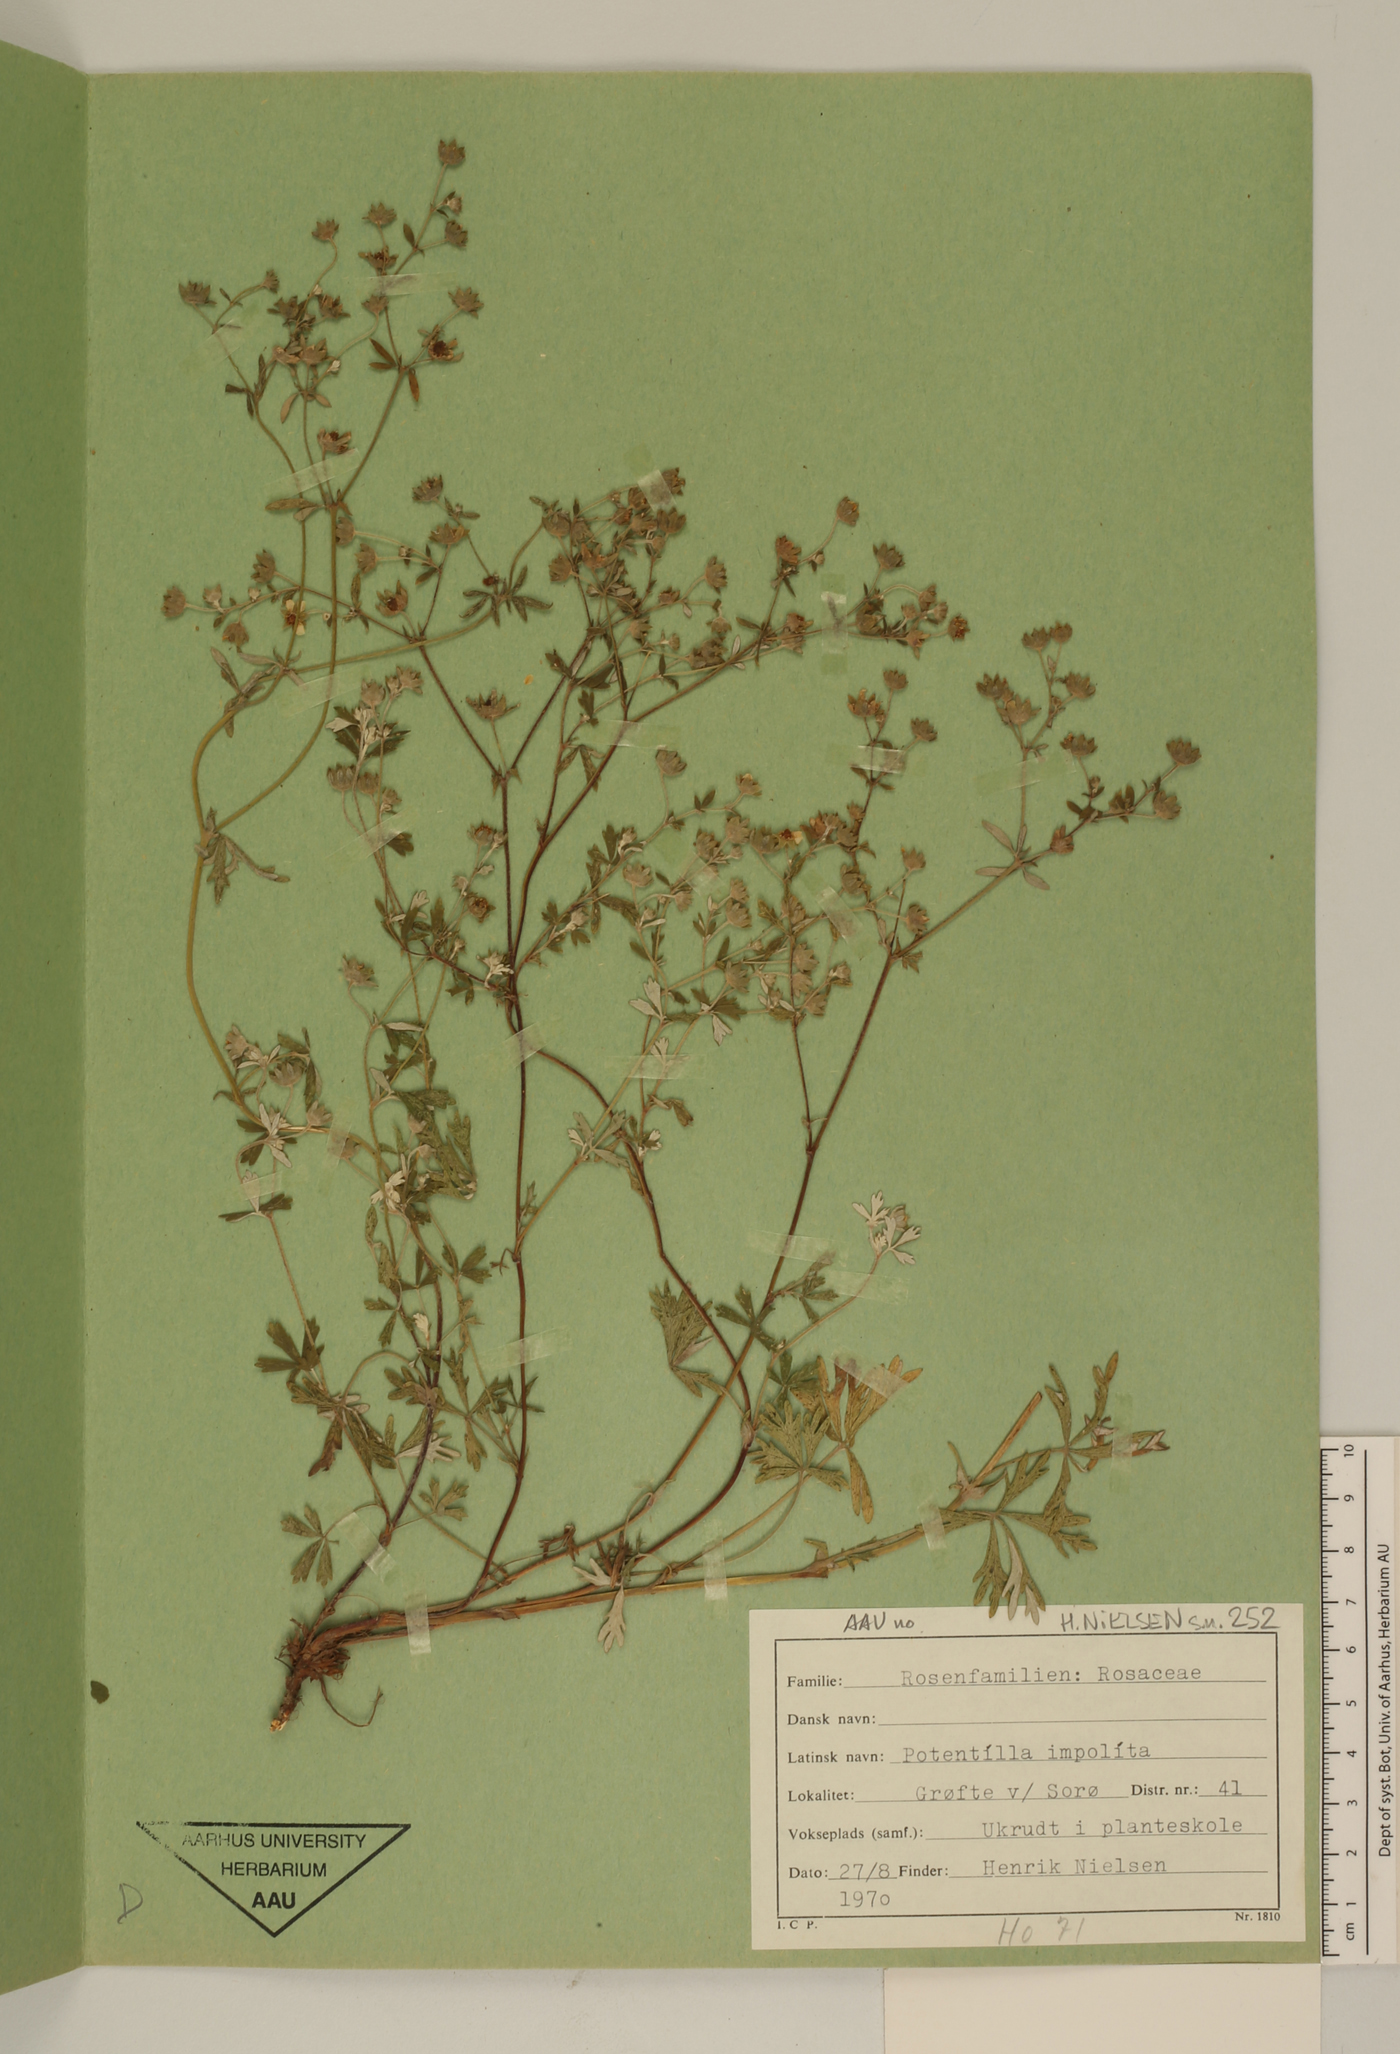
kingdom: Plantae
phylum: Tracheophyta
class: Magnoliopsida
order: Rosales
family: Rosaceae
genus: Potentilla
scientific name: Potentilla inclinata
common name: Grey cinquefoil
